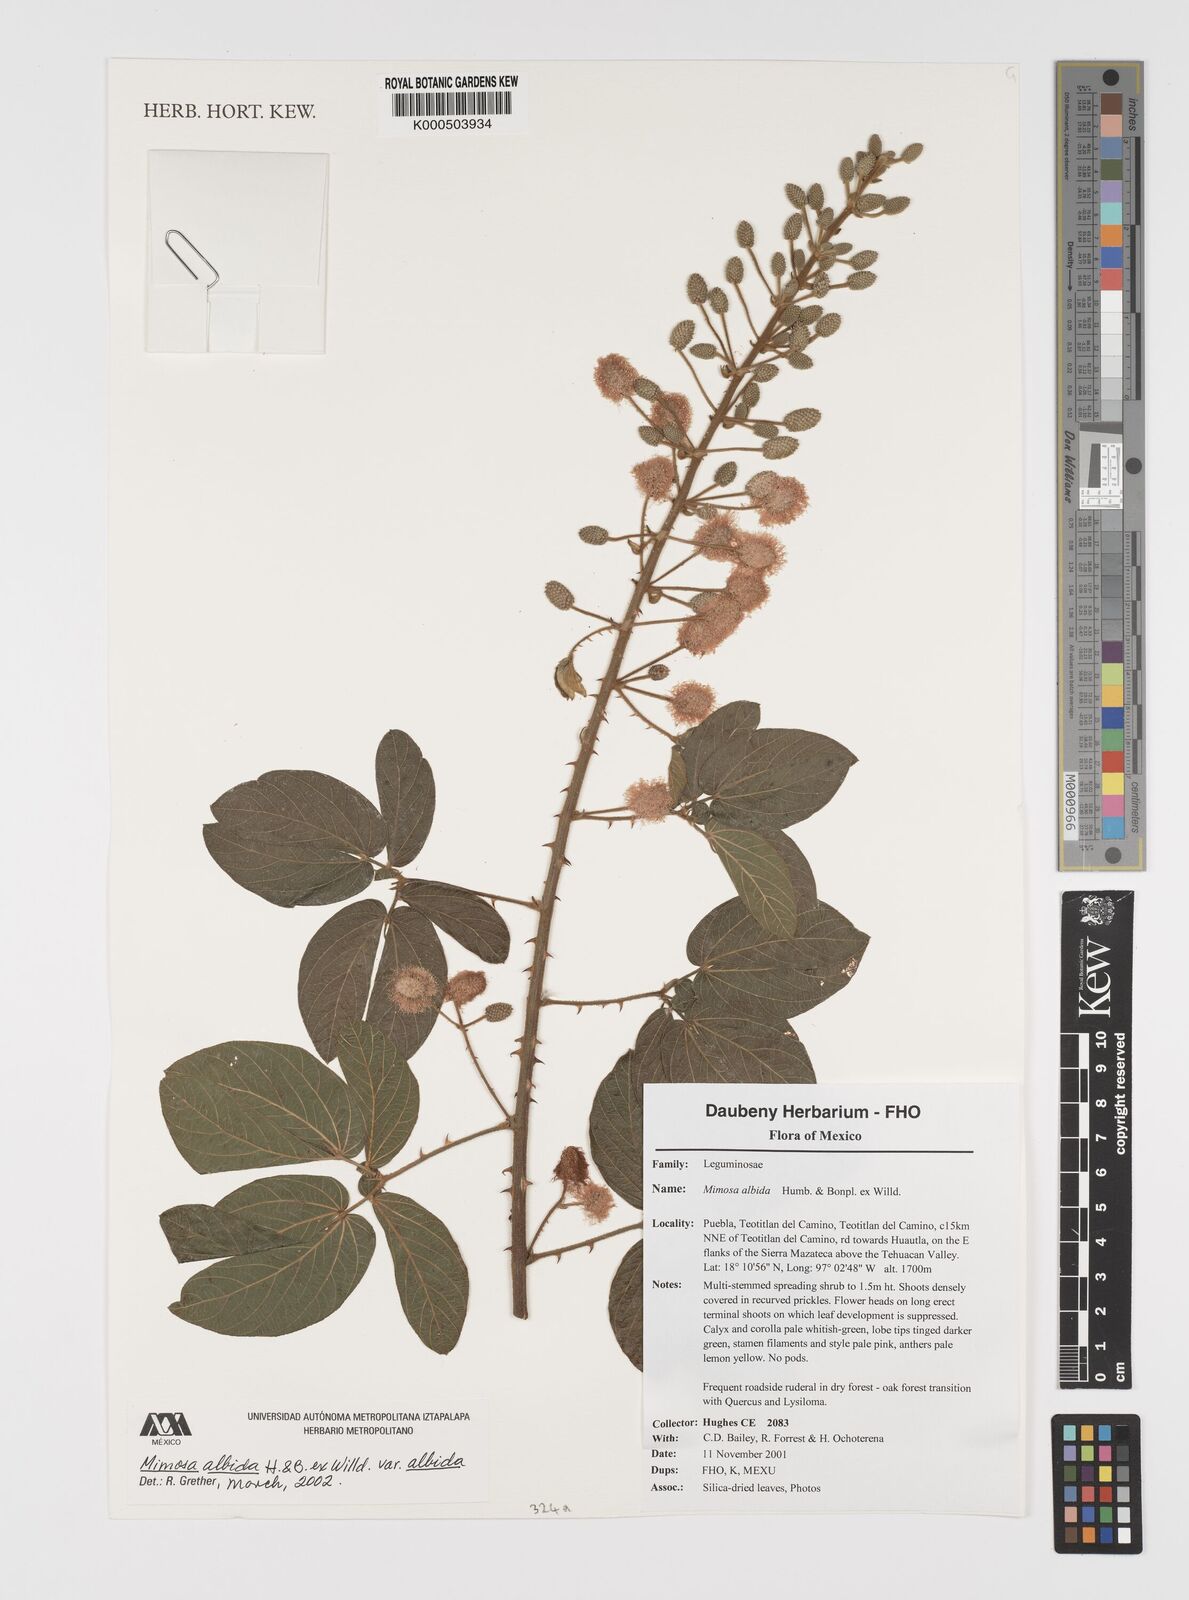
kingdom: Plantae
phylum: Tracheophyta
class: Magnoliopsida
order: Fabales
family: Fabaceae
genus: Mimosa
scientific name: Mimosa albida
